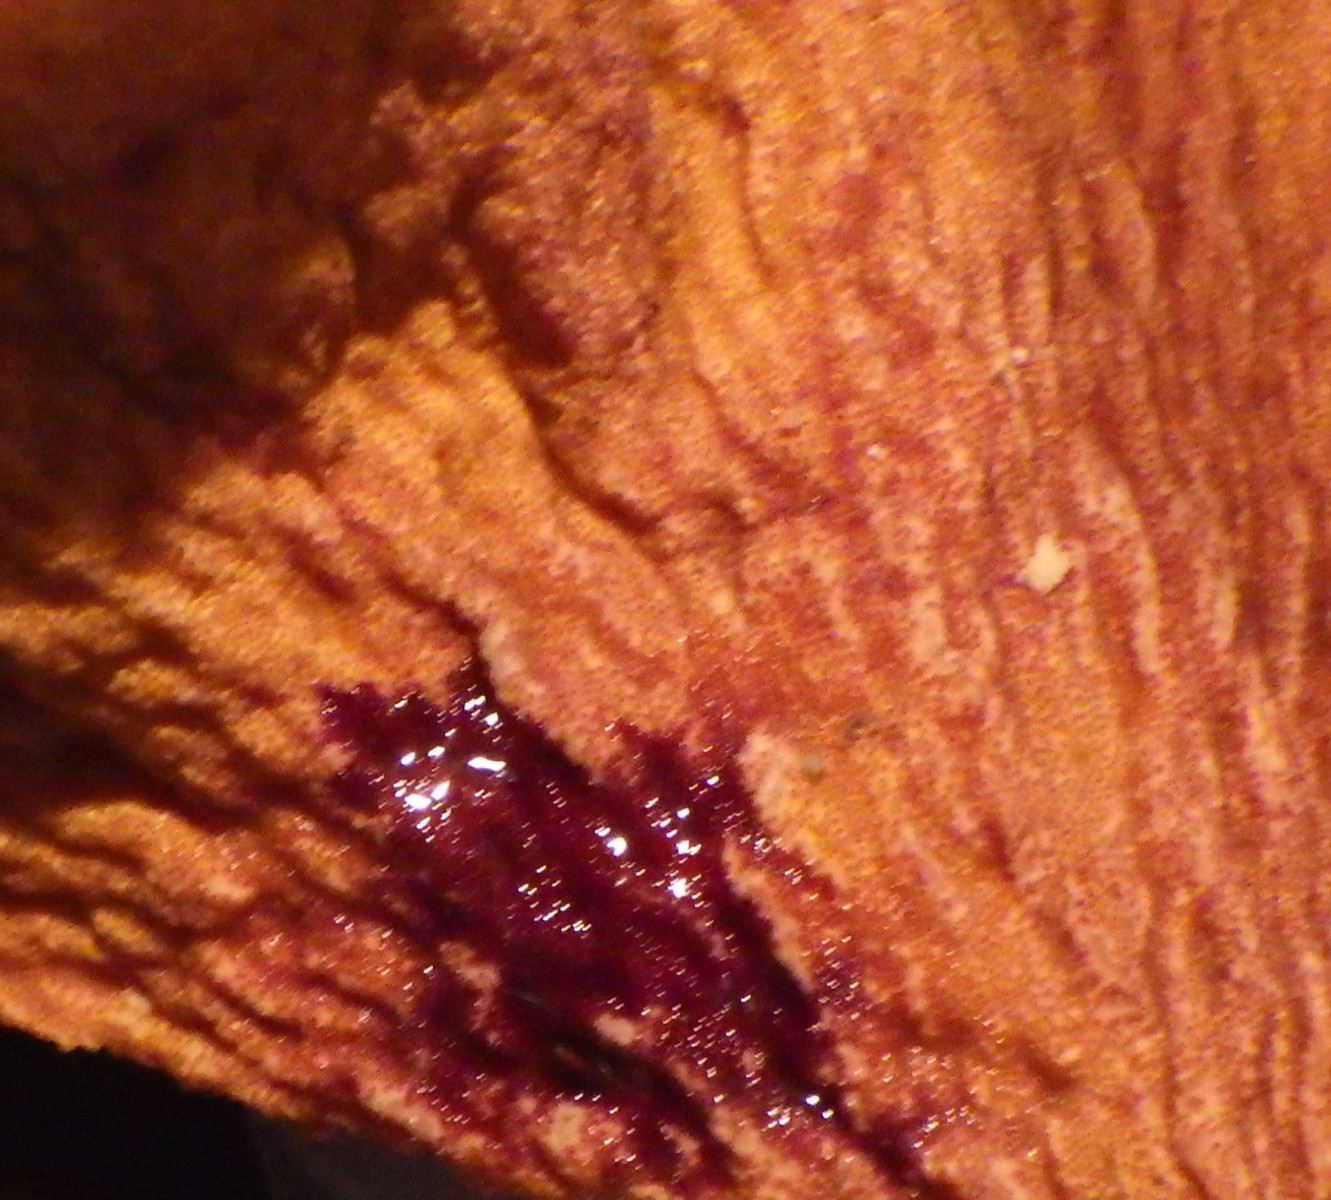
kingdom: Fungi
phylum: Ascomycota
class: Sordariomycetes
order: Hypocreales
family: Hypocreaceae
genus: Hypomyces
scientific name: Hypomyces spadiceus
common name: mælkeskæg-snylteskorpe
